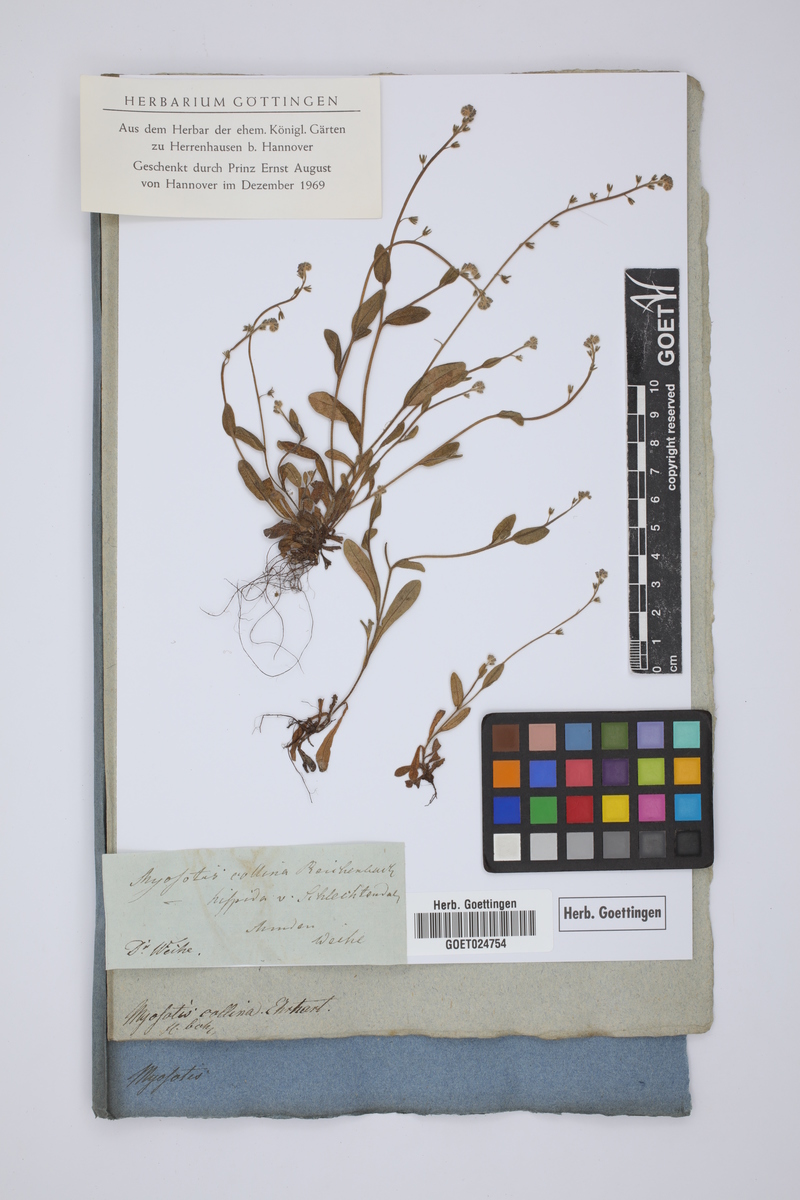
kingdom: Plantae
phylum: Tracheophyta
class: Magnoliopsida
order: Boraginales
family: Boraginaceae
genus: Myosotis
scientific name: Myosotis discolor
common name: Changing forget-me-not
